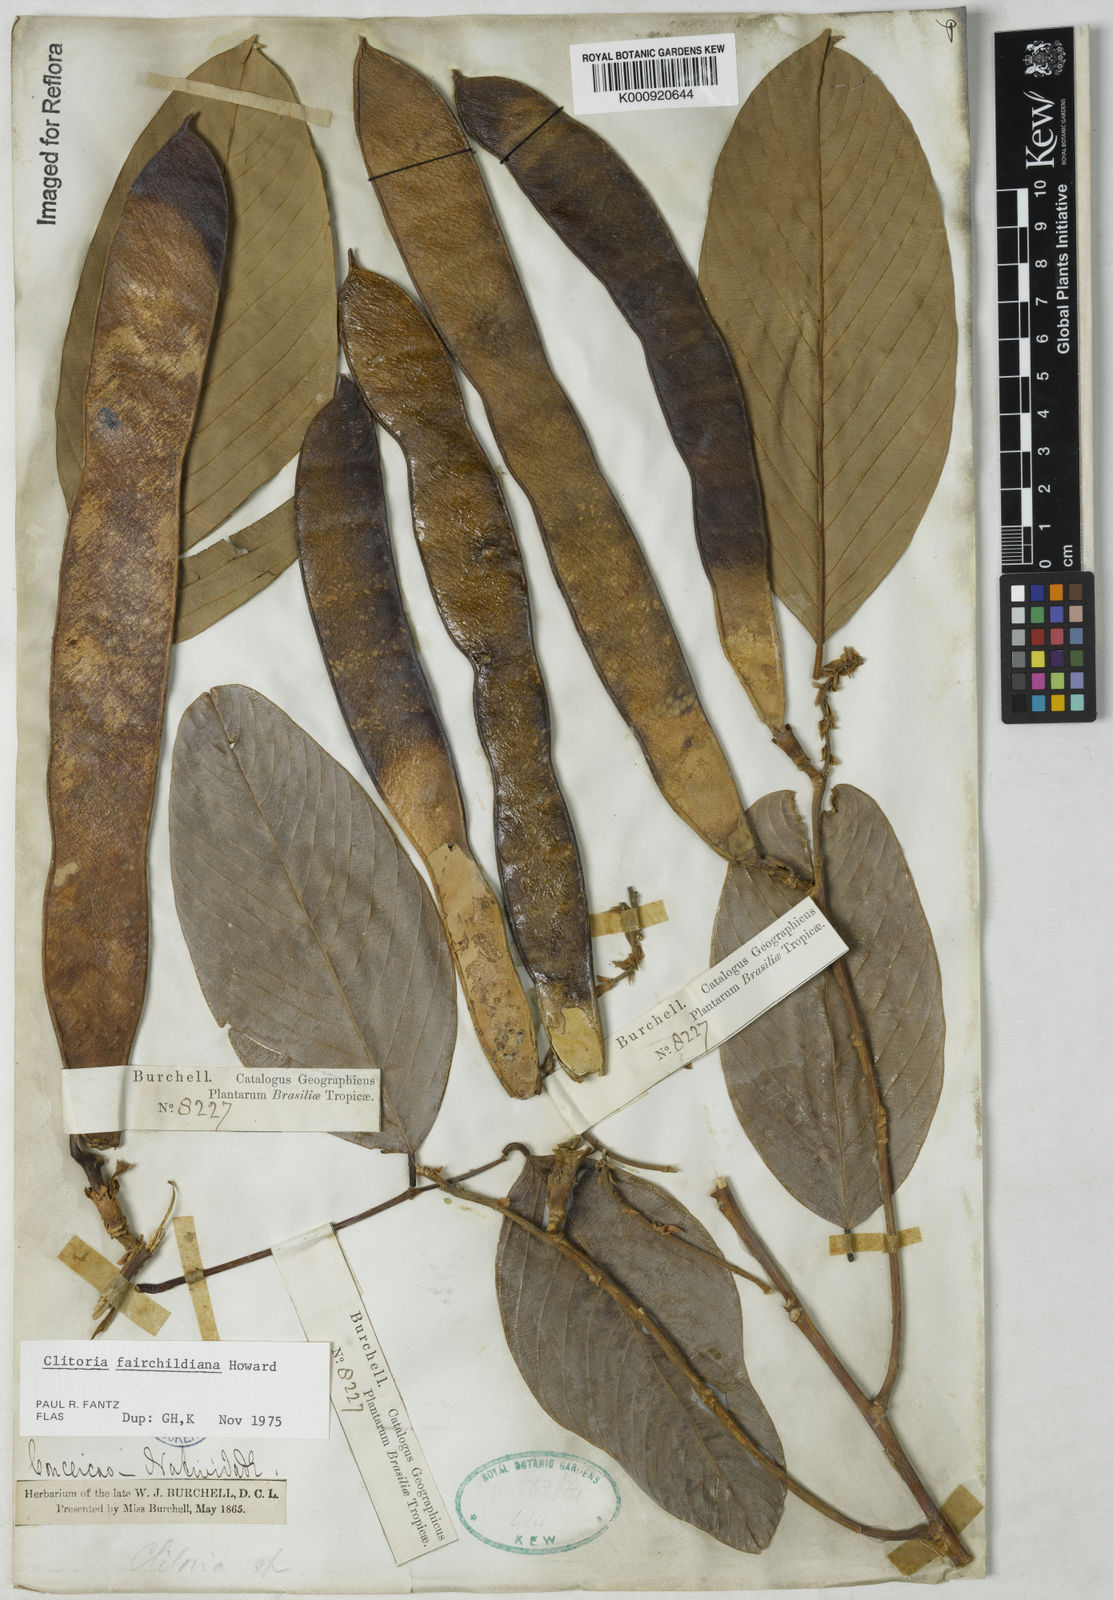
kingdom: Plantae
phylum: Tracheophyta
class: Magnoliopsida
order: Fabales
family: Fabaceae
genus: Clitoria
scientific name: Clitoria fairchildiana
